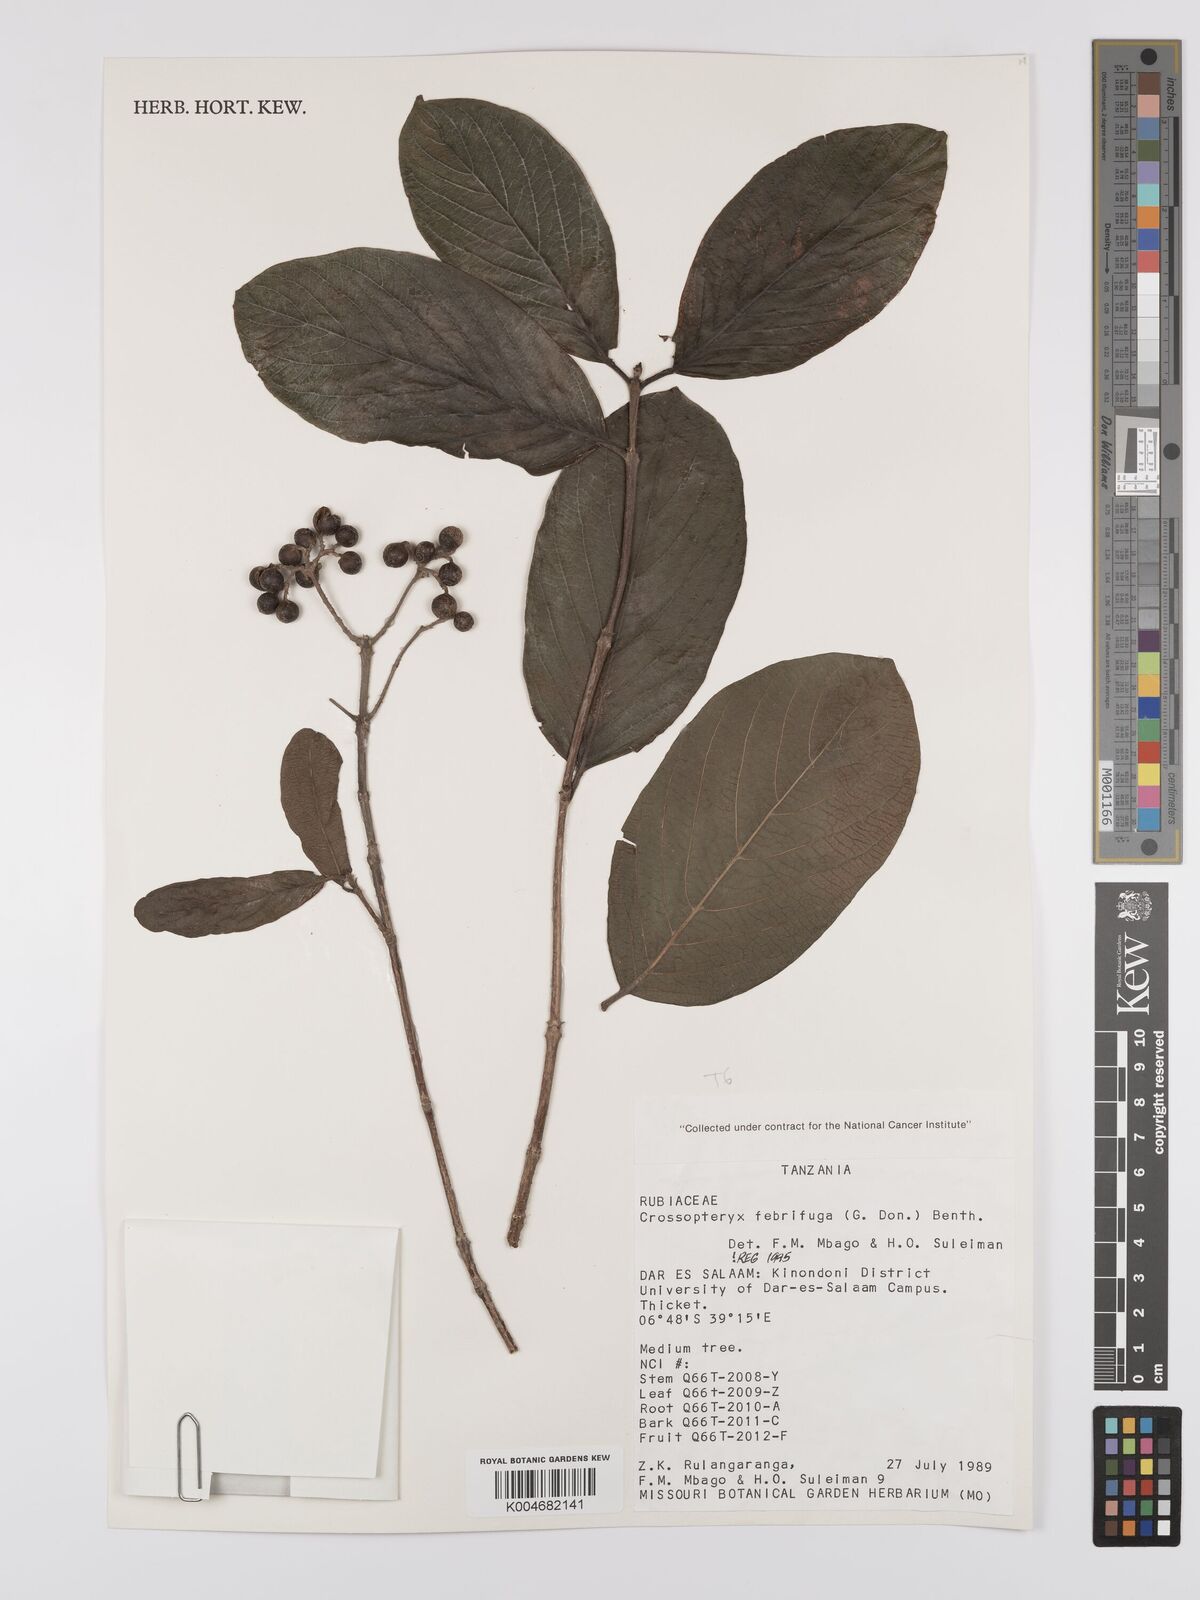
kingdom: Plantae
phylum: Tracheophyta
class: Magnoliopsida
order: Gentianales
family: Rubiaceae
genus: Crossopteryx
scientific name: Crossopteryx febrifuga
